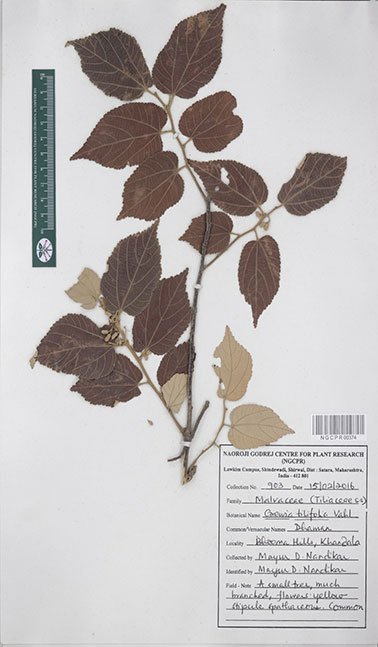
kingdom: Plantae
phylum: Tracheophyta
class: Magnoliopsida
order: Malvales
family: Malvaceae
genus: Grewia
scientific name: Grewia tiliifolia
